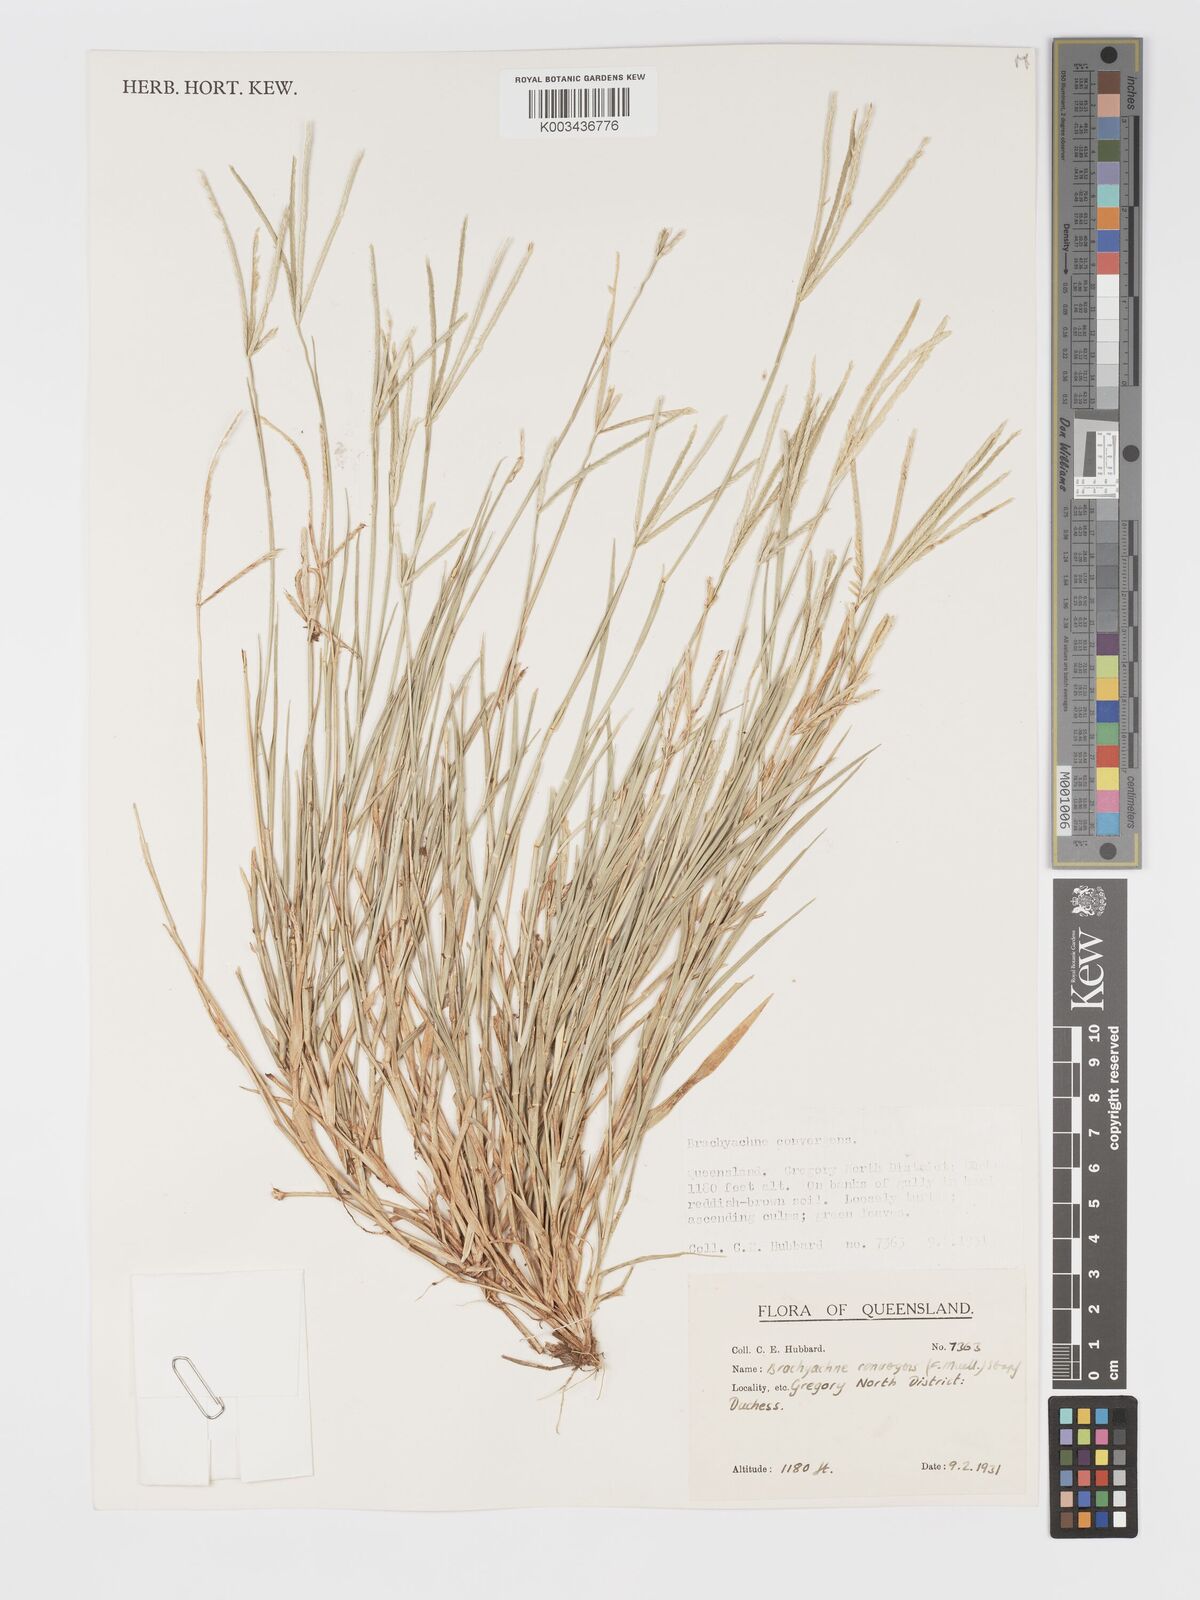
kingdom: Plantae
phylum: Tracheophyta
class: Liliopsida
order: Poales
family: Poaceae
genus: Cynodon
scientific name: Cynodon convergens
